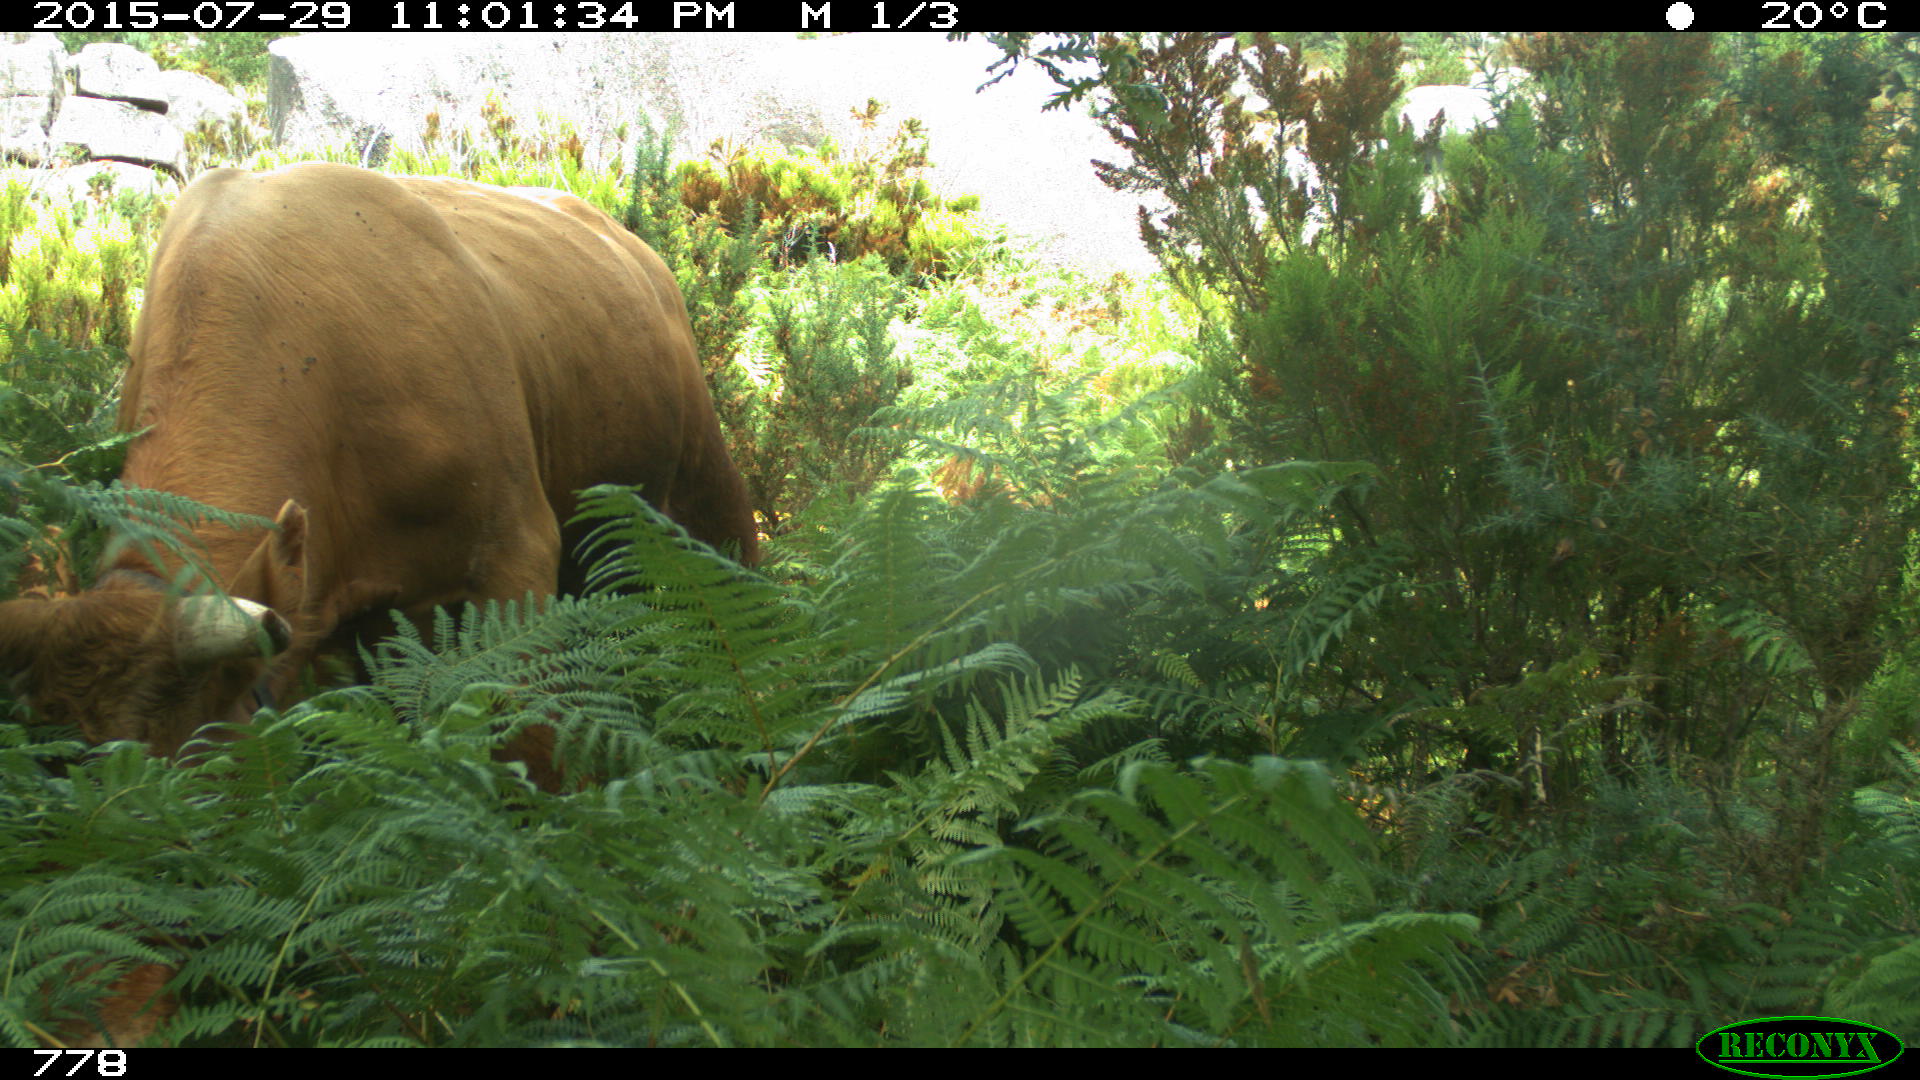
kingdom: Animalia
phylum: Chordata
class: Mammalia
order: Artiodactyla
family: Bovidae
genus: Bos
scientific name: Bos taurus
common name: Domesticated cattle
